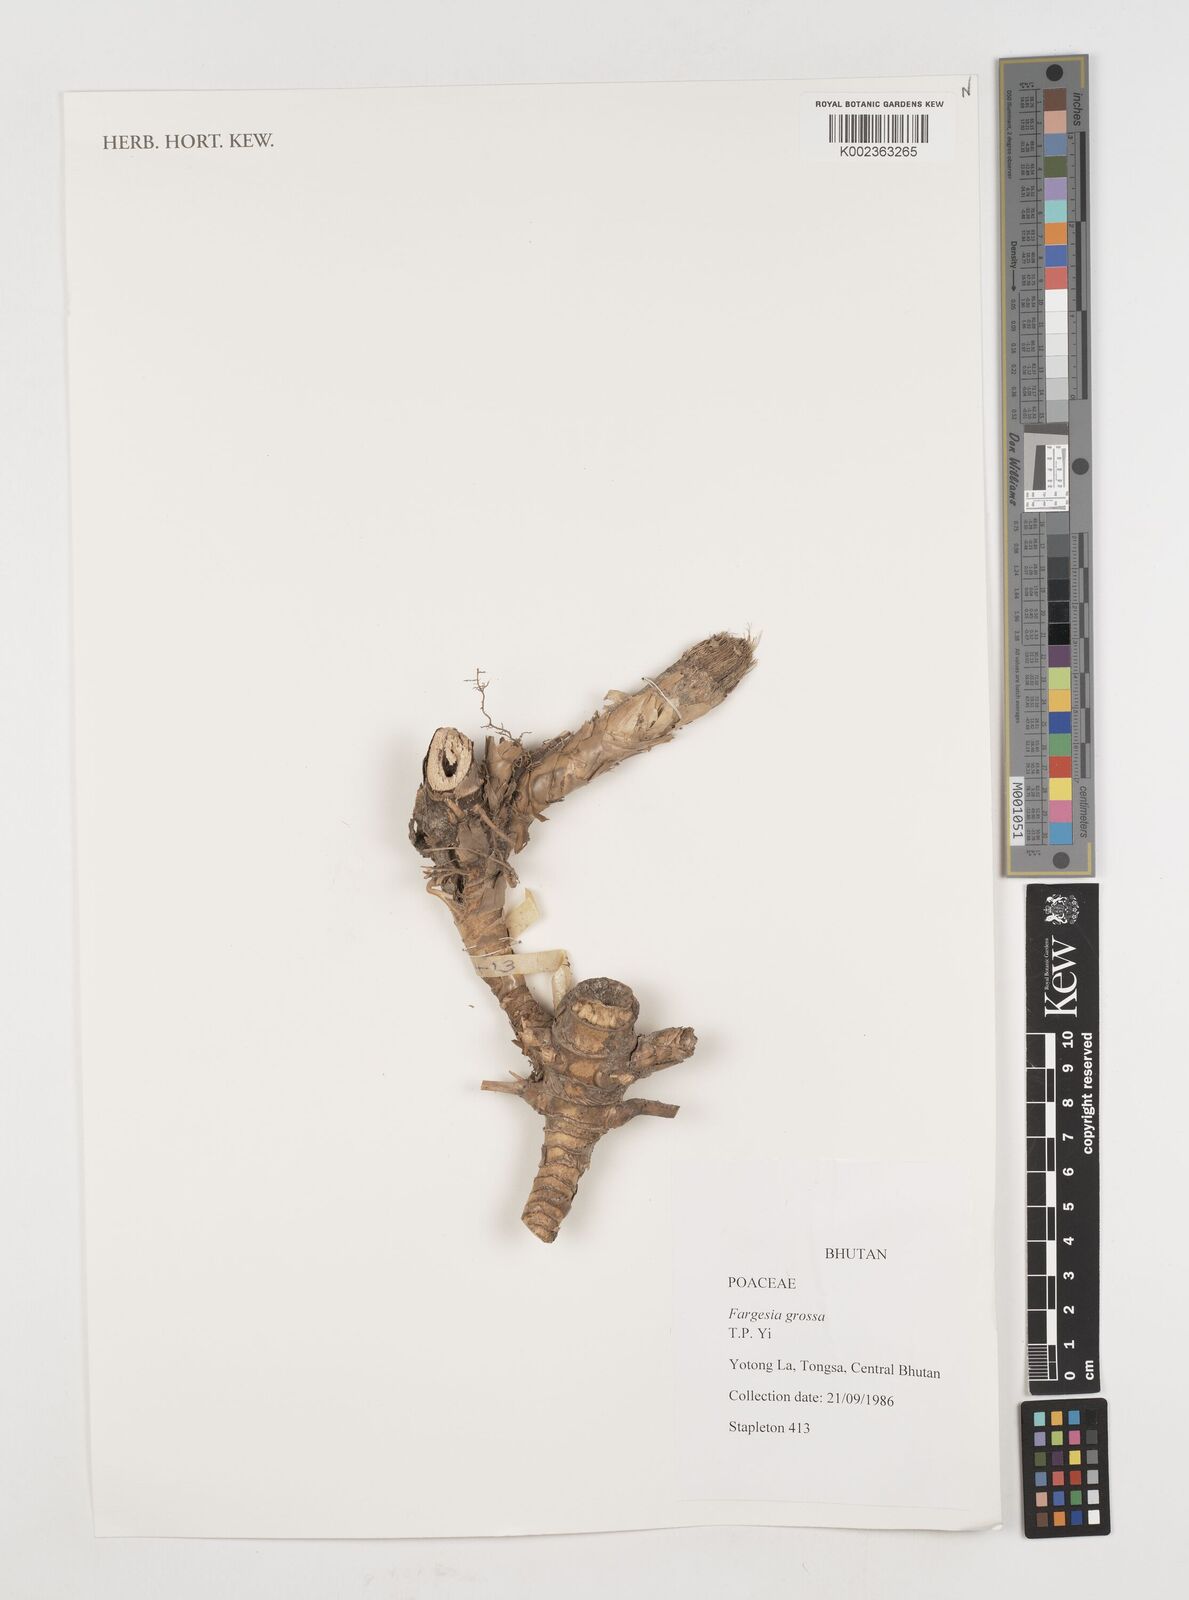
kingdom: Plantae
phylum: Tracheophyta
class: Liliopsida
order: Poales
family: Poaceae
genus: Borinda
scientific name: Borinda grossa
